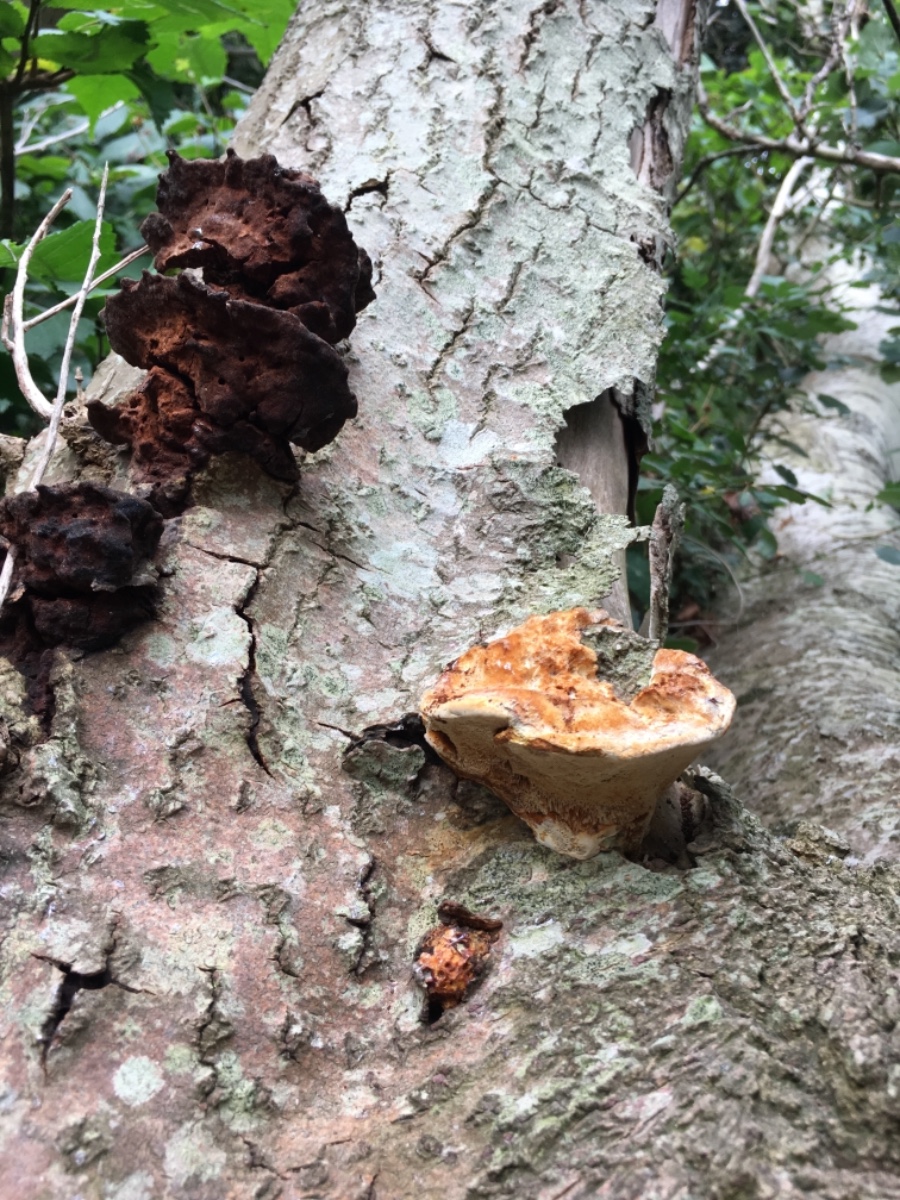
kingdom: Fungi
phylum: Basidiomycota
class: Agaricomycetes
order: Hymenochaetales
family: Hymenochaetaceae
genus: Inocutis
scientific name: Inocutis rheades
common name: ræve-spejlporesvamp
